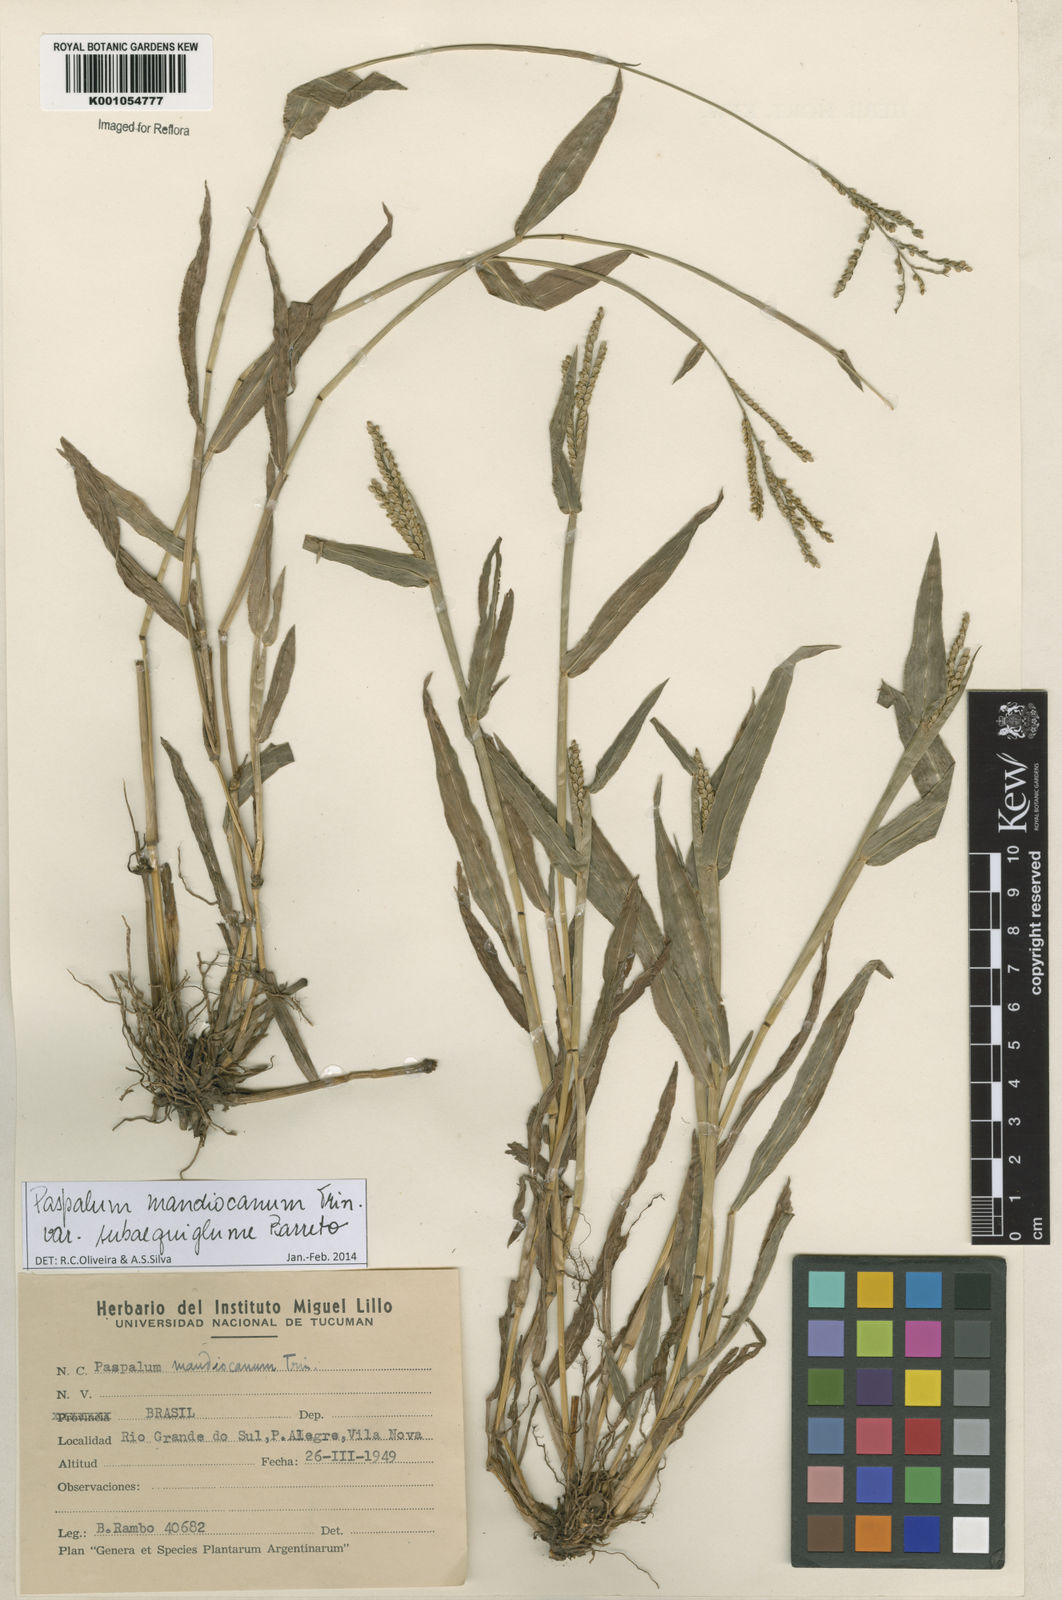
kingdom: Plantae
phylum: Tracheophyta
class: Liliopsida
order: Poales
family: Poaceae
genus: Paspalum
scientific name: Paspalum mandiocanum
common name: Paspalum
